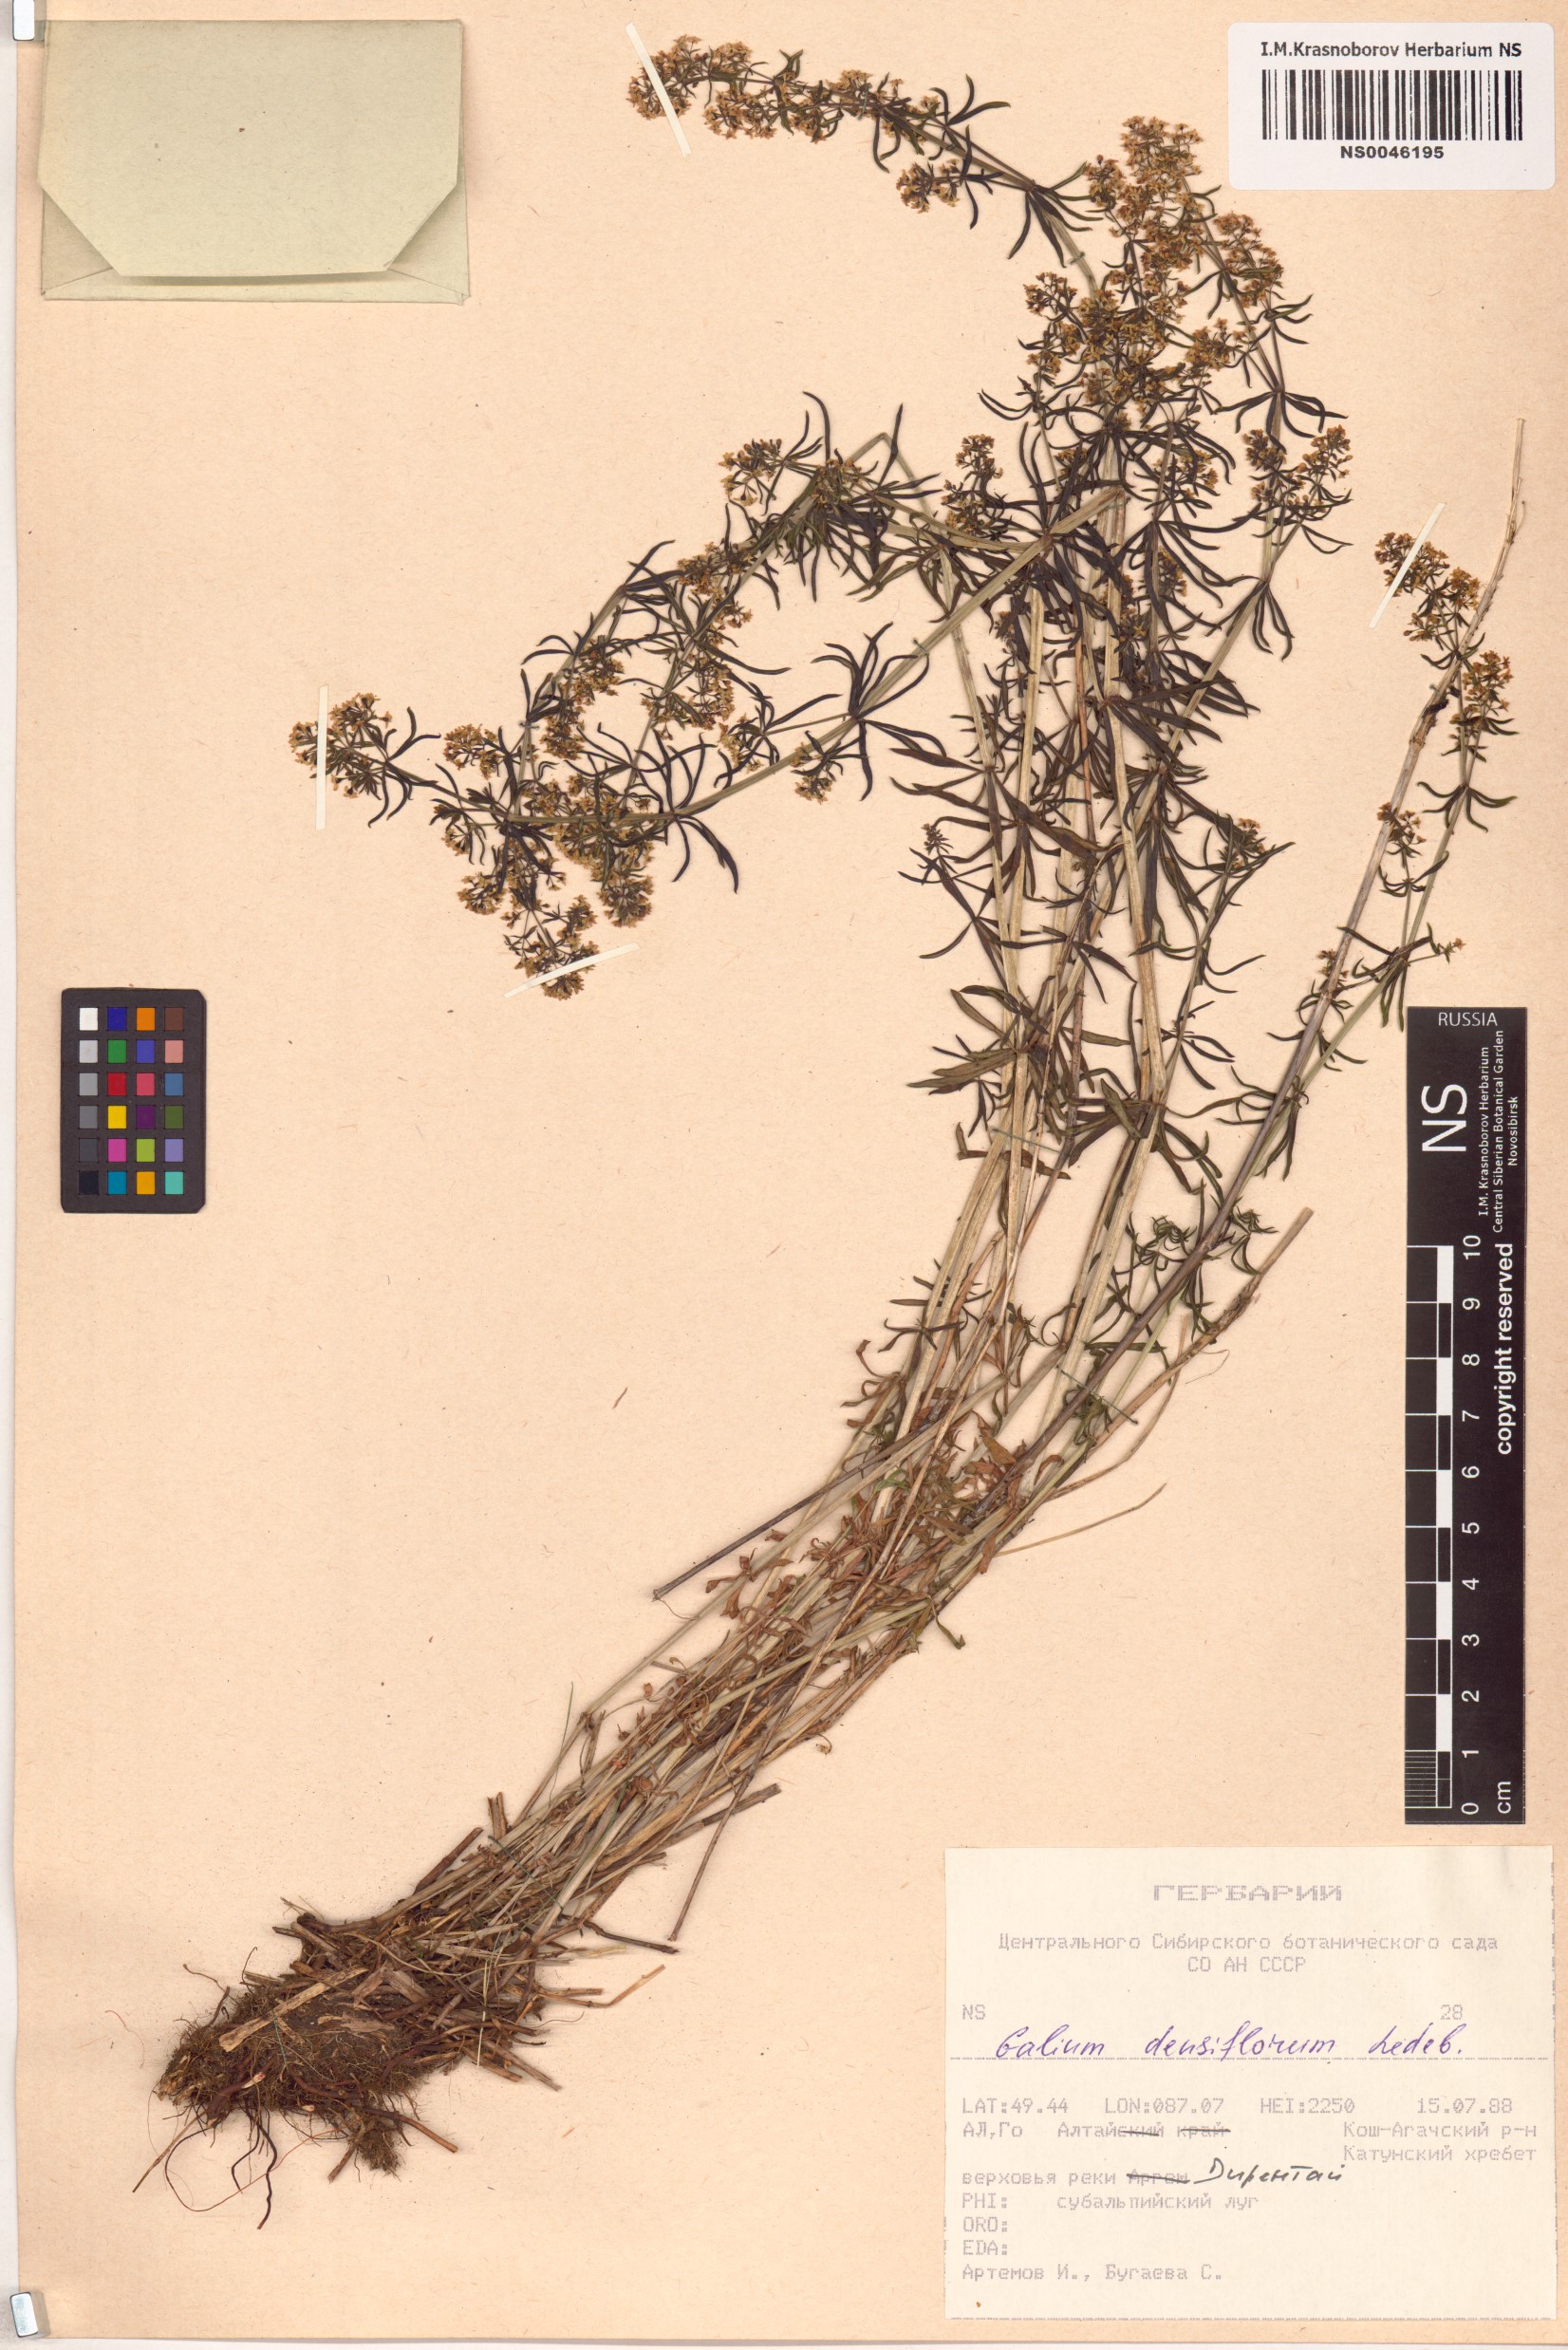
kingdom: Plantae
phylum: Tracheophyta
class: Magnoliopsida
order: Gentianales
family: Rubiaceae
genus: Galium
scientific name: Galium densiflorum
